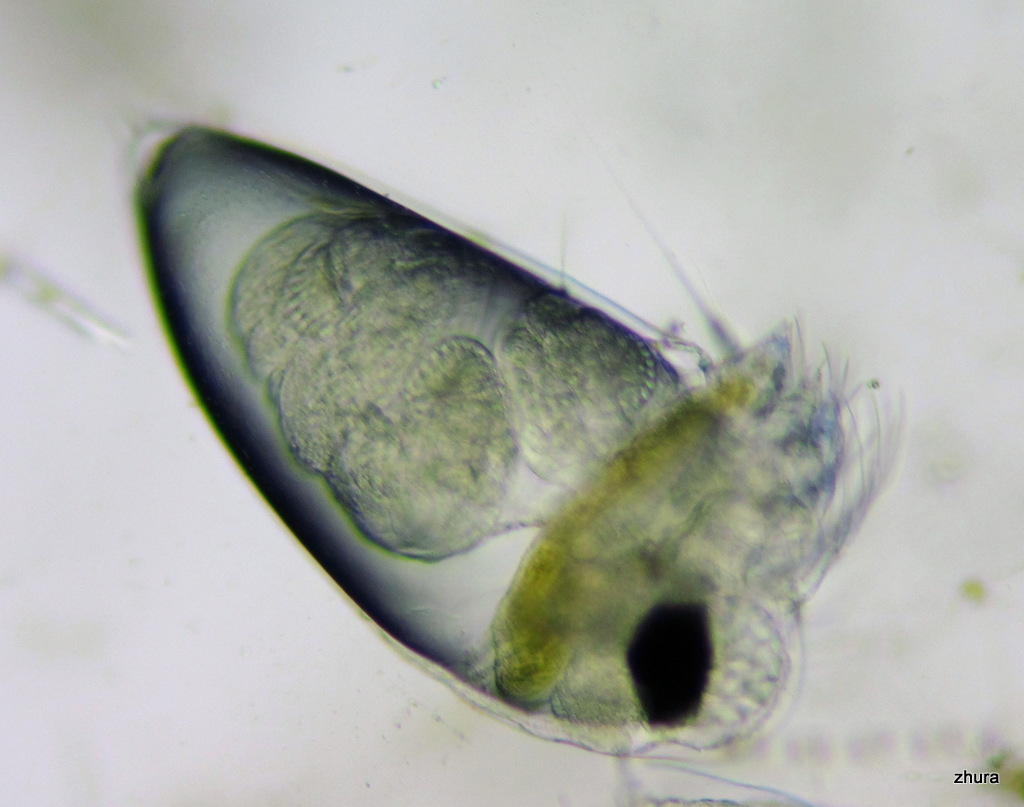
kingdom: Animalia
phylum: Arthropoda
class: Branchiopoda
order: Diplostraca
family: Podonidae
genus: Evadne
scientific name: Evadne nordmanni
